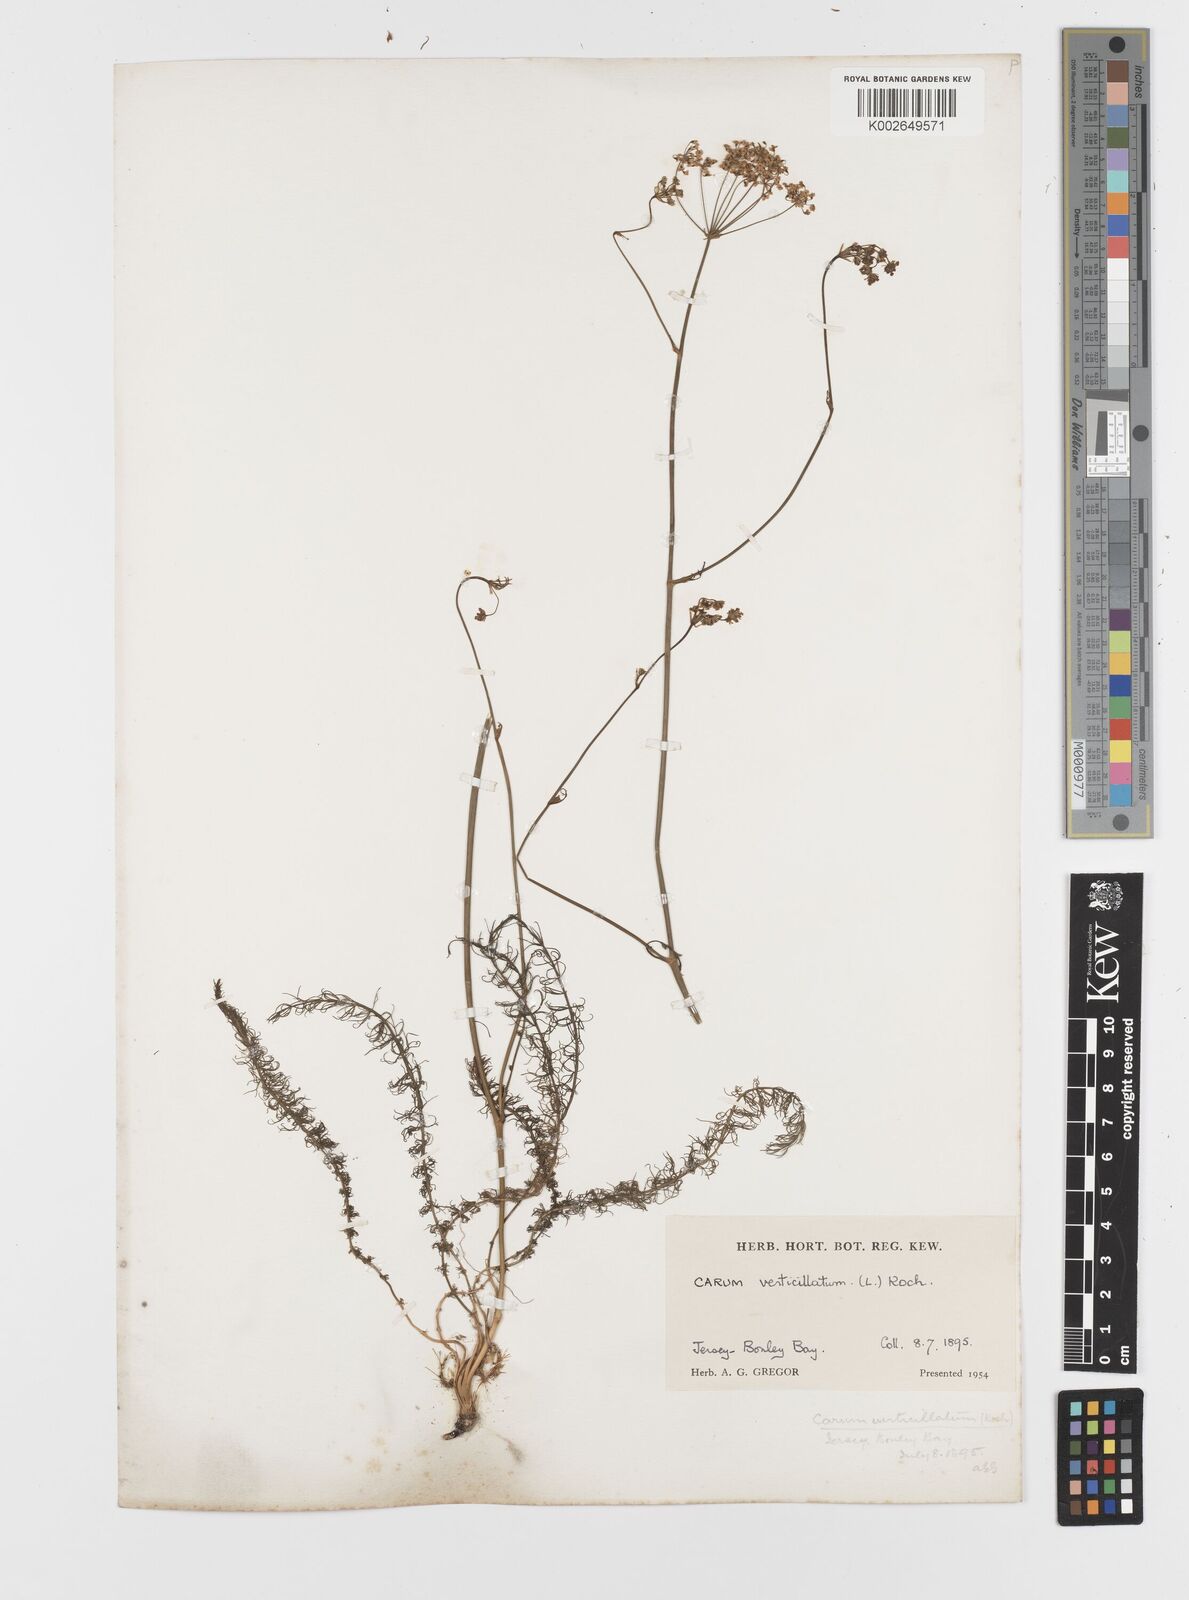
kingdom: Plantae
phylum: Tracheophyta
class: Magnoliopsida
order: Apiales
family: Apiaceae
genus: Trocdaris
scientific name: Trocdaris verticillatum
